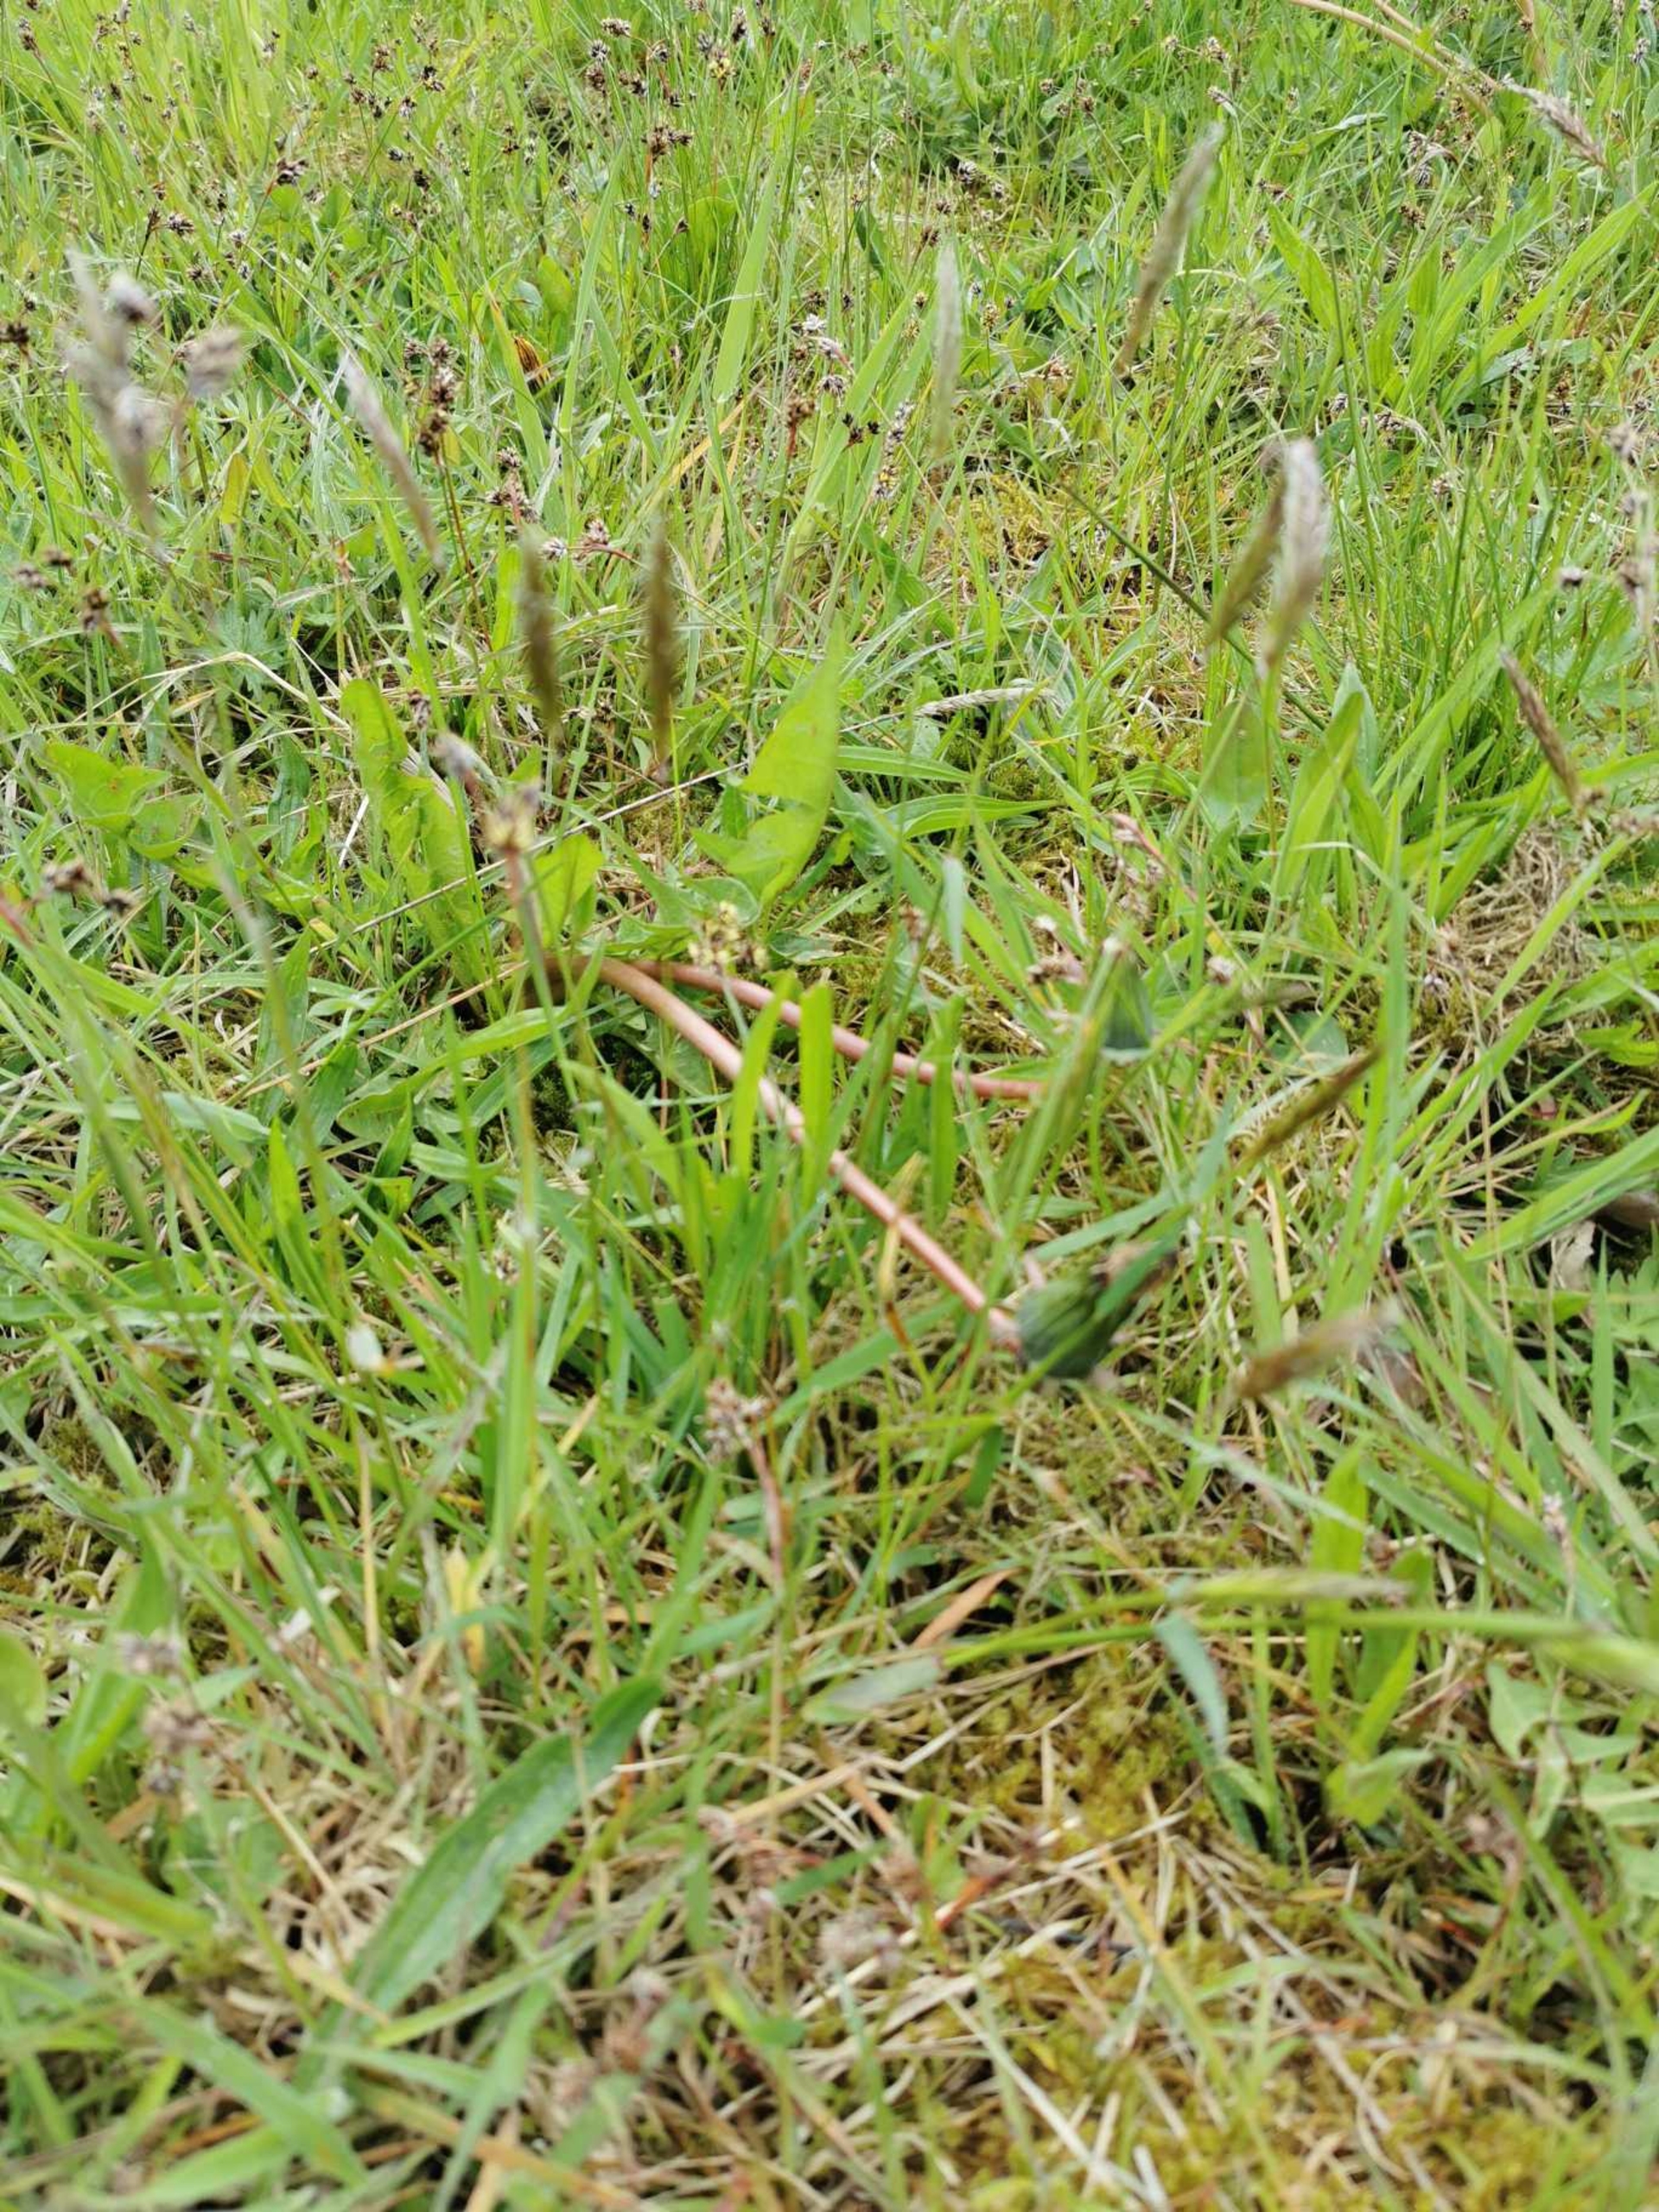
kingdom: Plantae
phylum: Tracheophyta
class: Liliopsida
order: Poales
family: Poaceae
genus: Anthoxanthum
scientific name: Anthoxanthum odoratum
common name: Vellugtende gulaks
